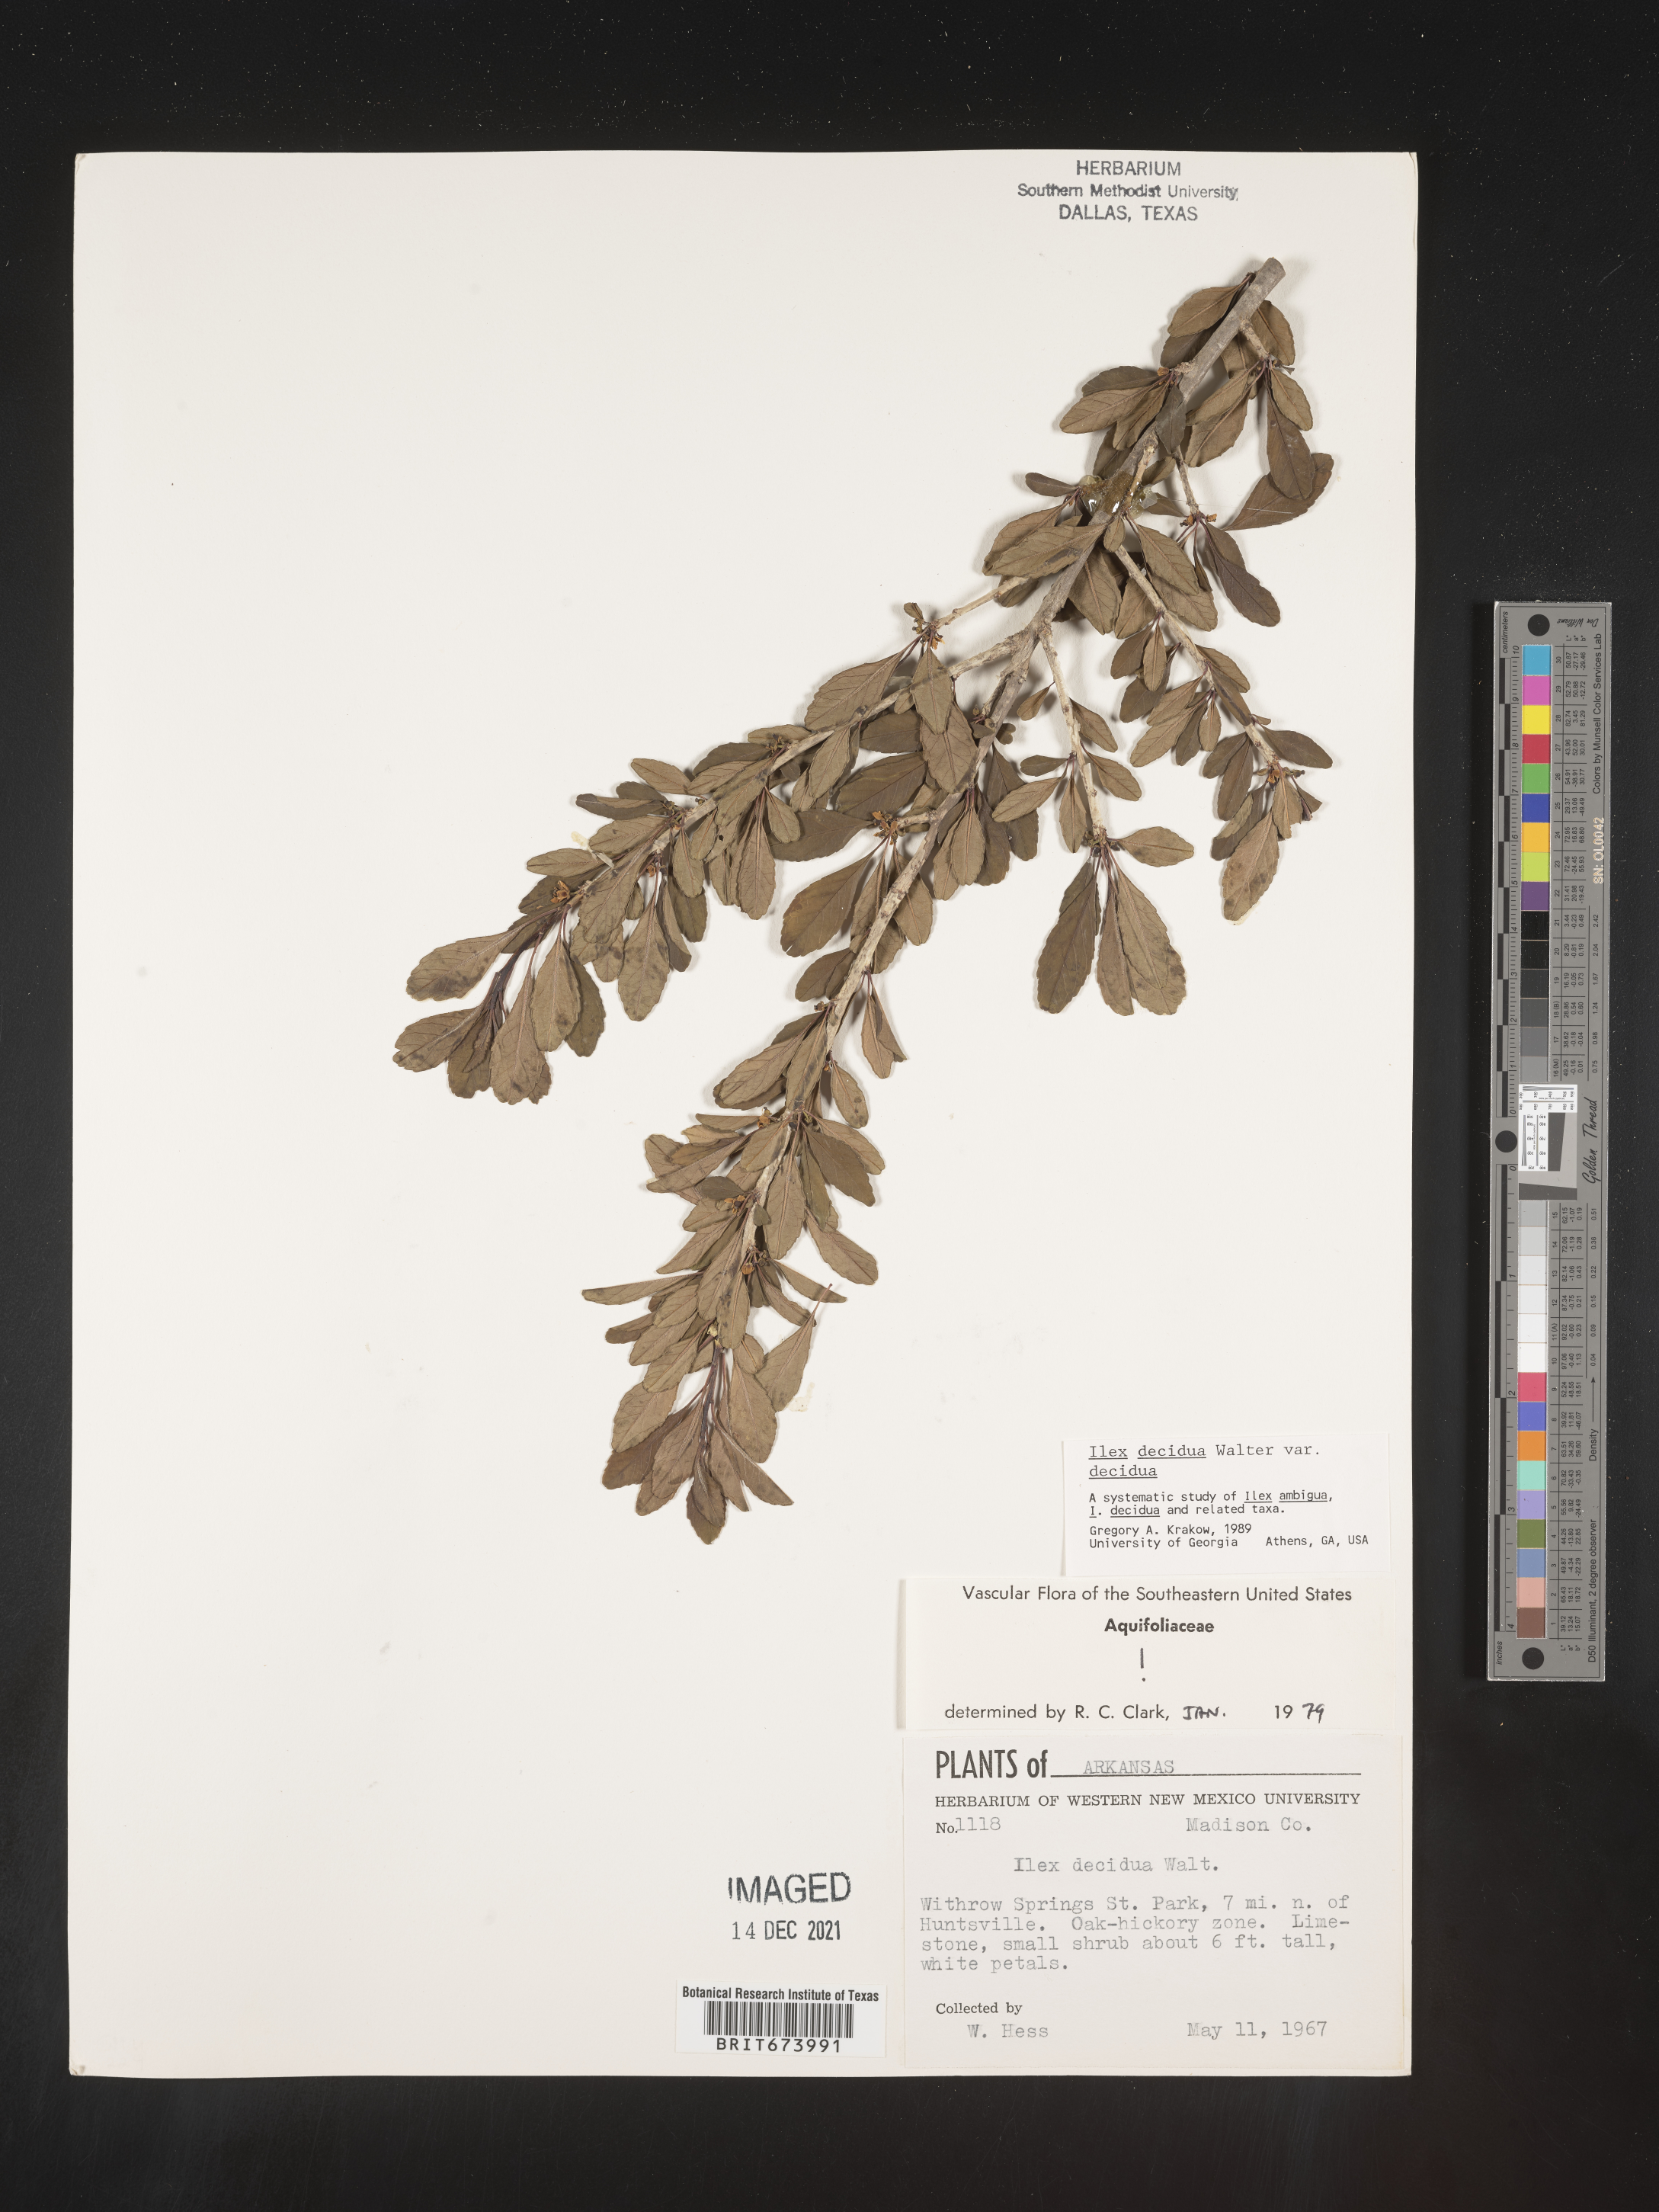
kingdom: Plantae
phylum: Tracheophyta
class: Magnoliopsida
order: Aquifoliales
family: Aquifoliaceae
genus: Ilex
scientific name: Ilex decidua
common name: Possum-haw
